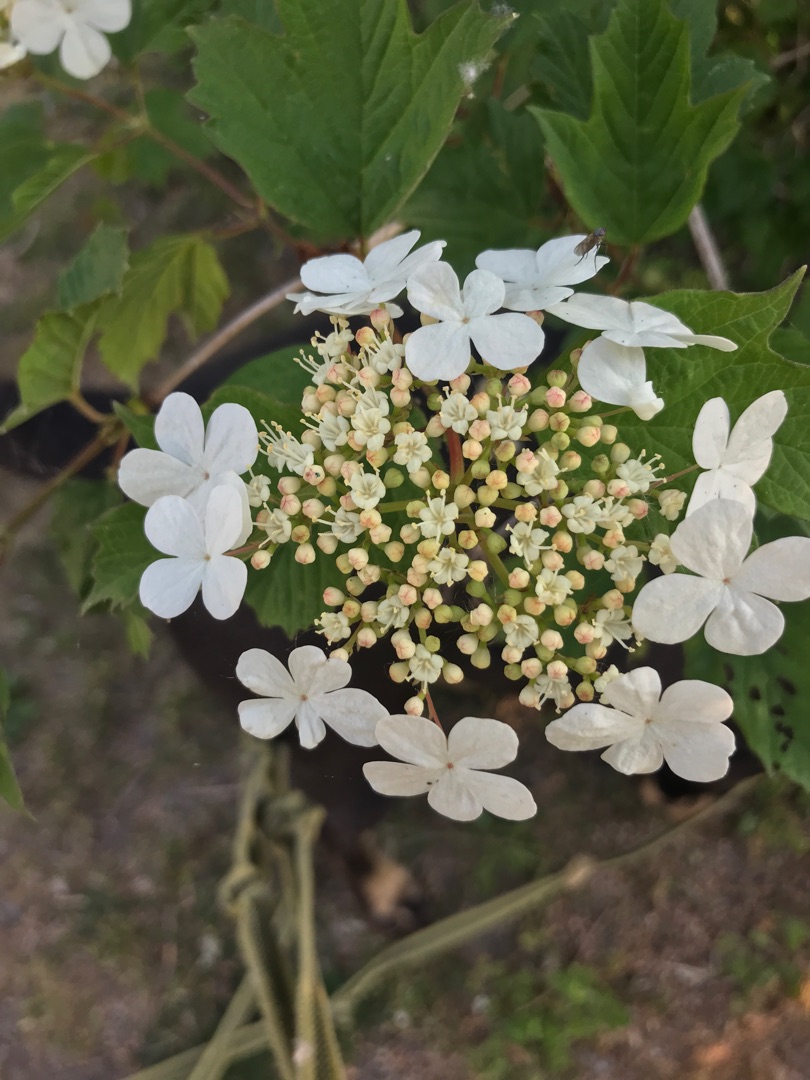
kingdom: Plantae
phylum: Tracheophyta
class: Magnoliopsida
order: Dipsacales
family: Viburnaceae
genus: Viburnum
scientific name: Viburnum opulus
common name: Kvalkved
